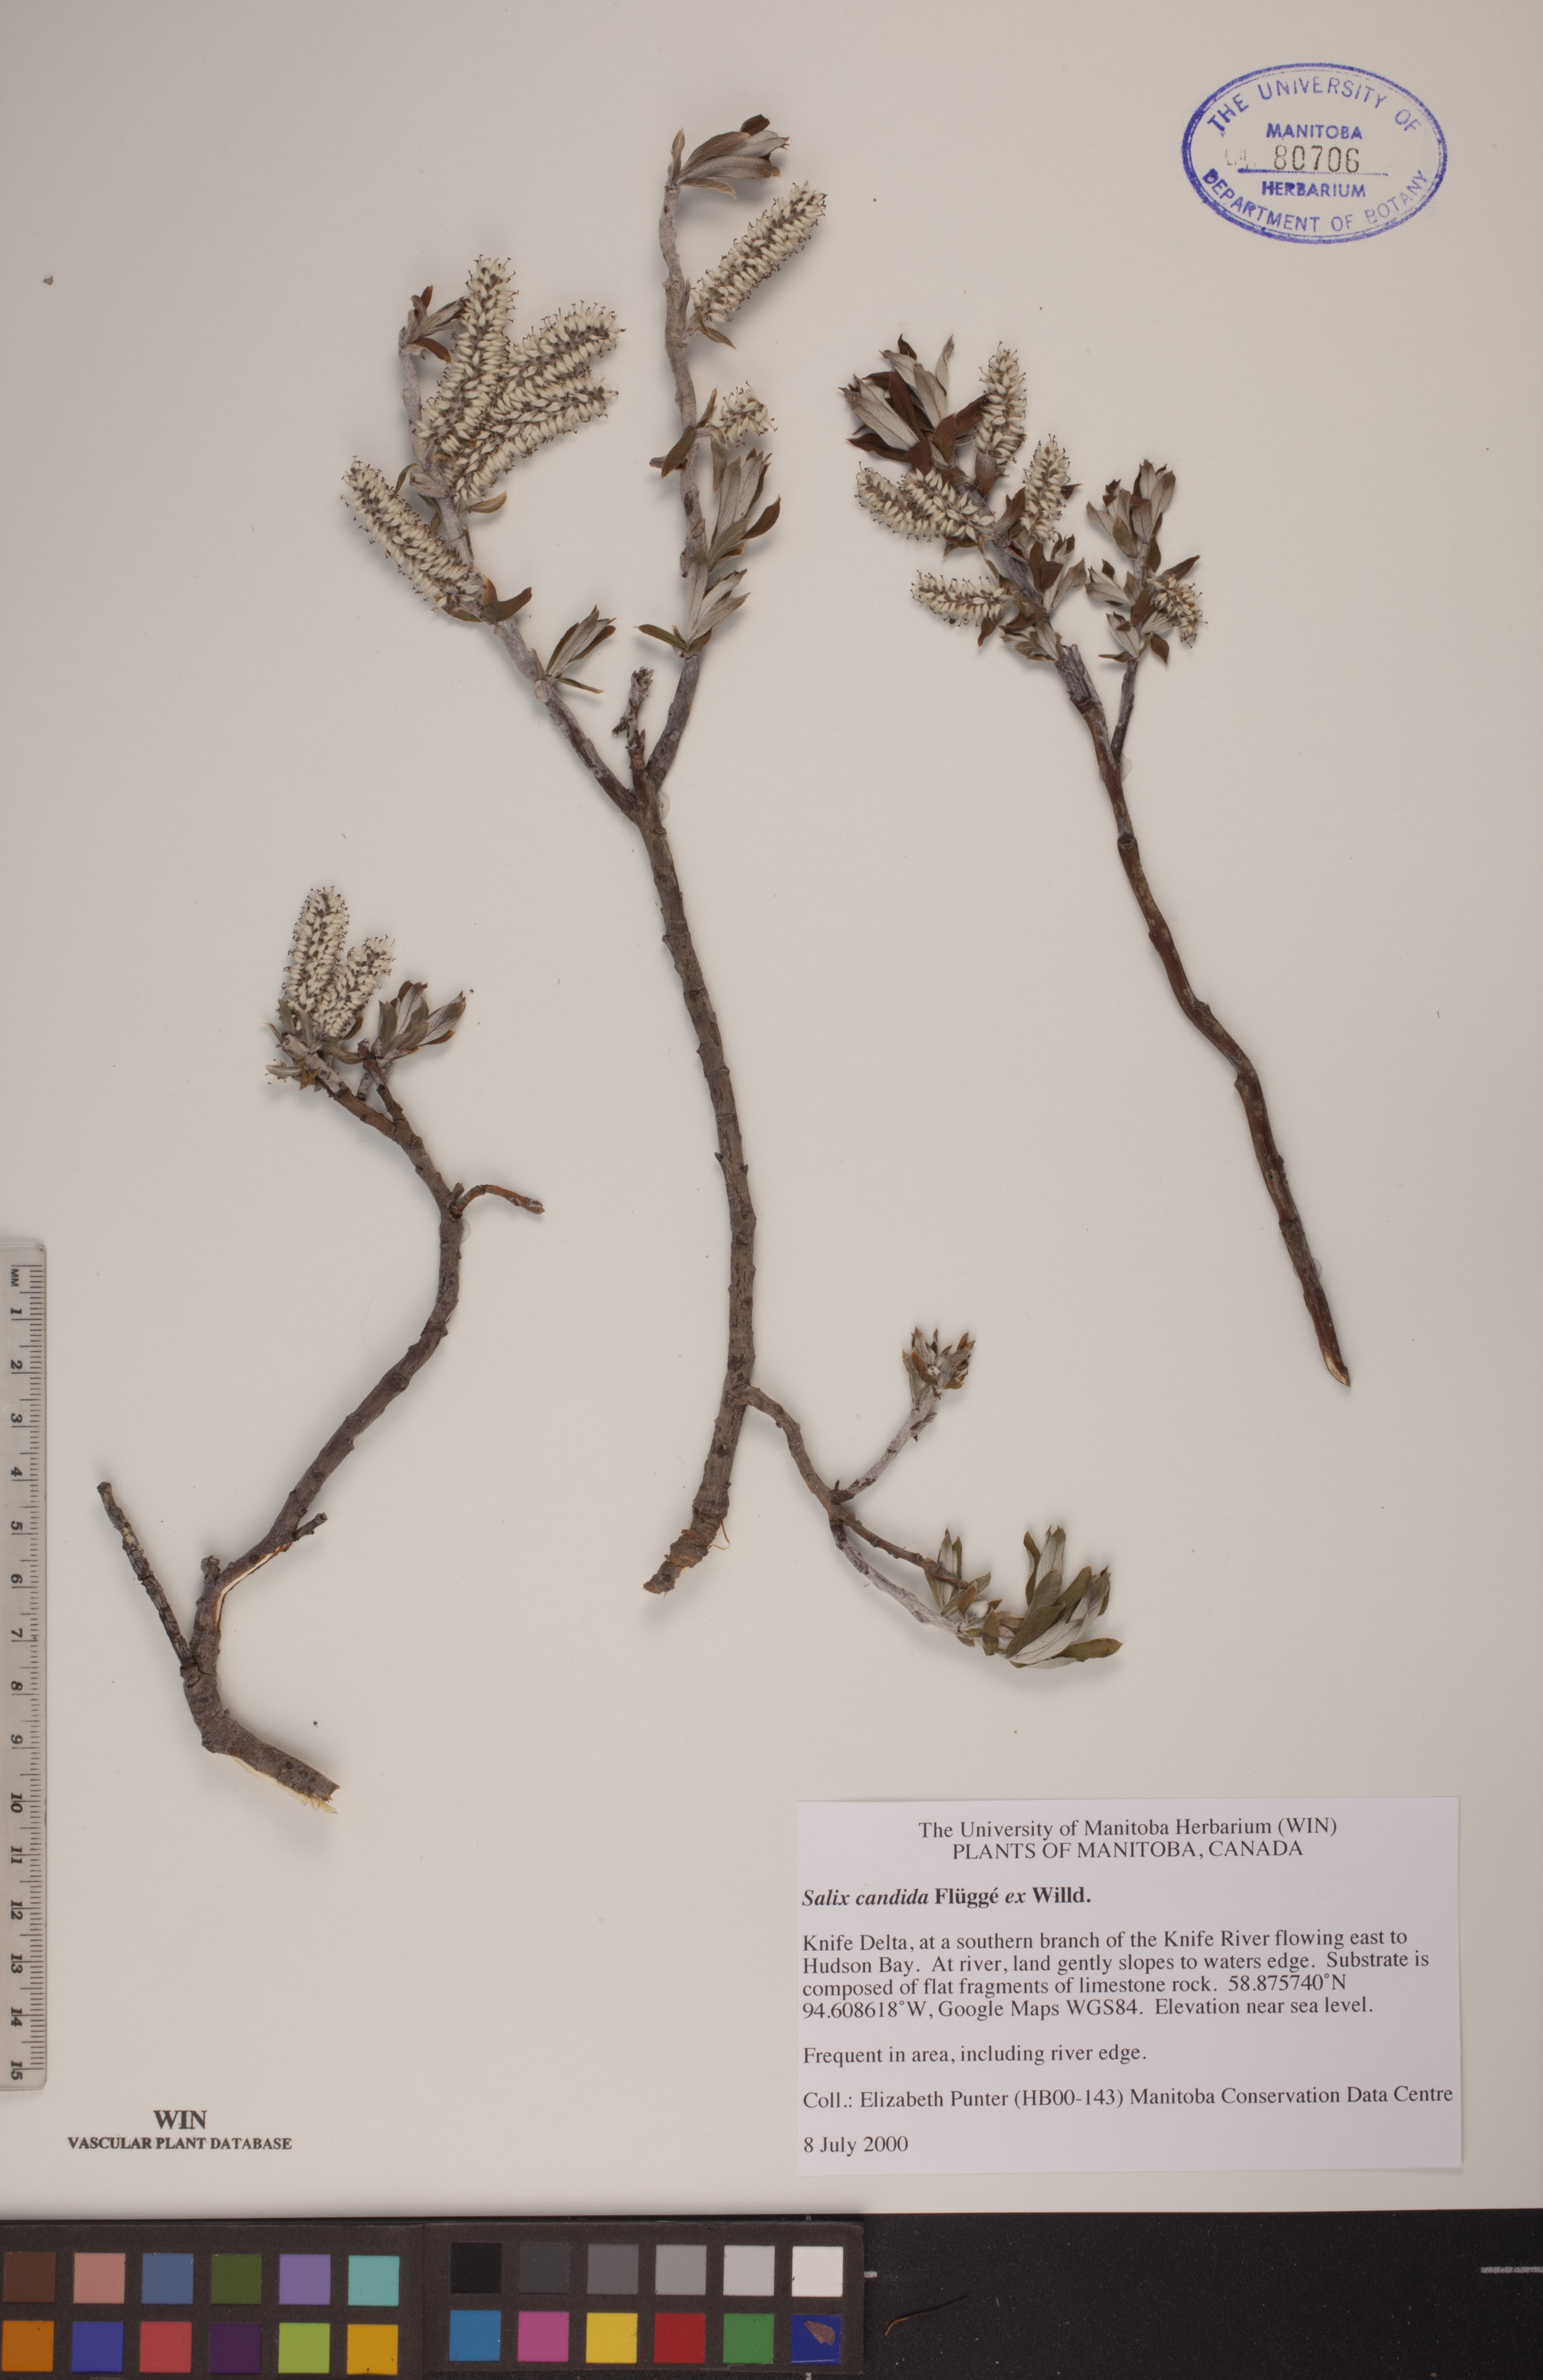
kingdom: Plantae
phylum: Tracheophyta
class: Magnoliopsida
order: Malpighiales
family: Salicaceae
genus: Salix
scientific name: Salix candida
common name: Hoary willow
